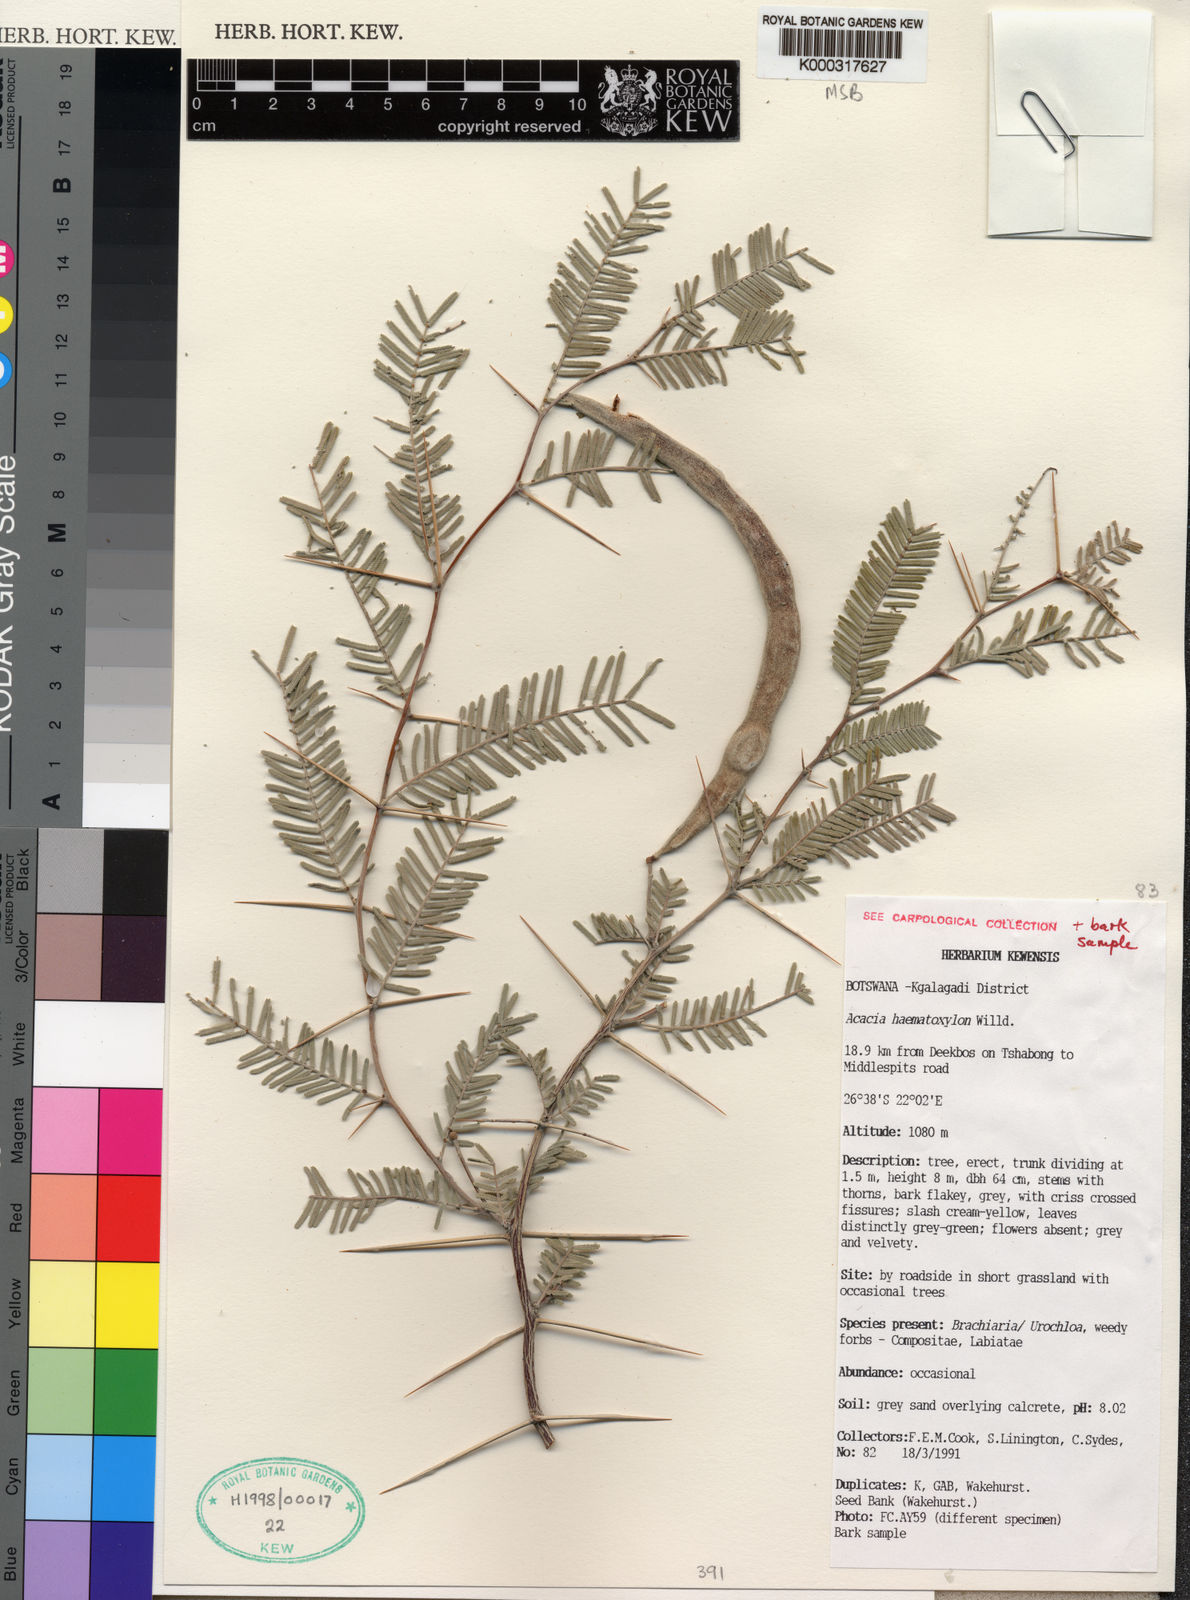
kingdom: Plantae
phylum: Tracheophyta
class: Magnoliopsida
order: Fabales
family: Fabaceae
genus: Vachellia
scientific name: Vachellia haematoxylon
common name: Grey camel thorn
